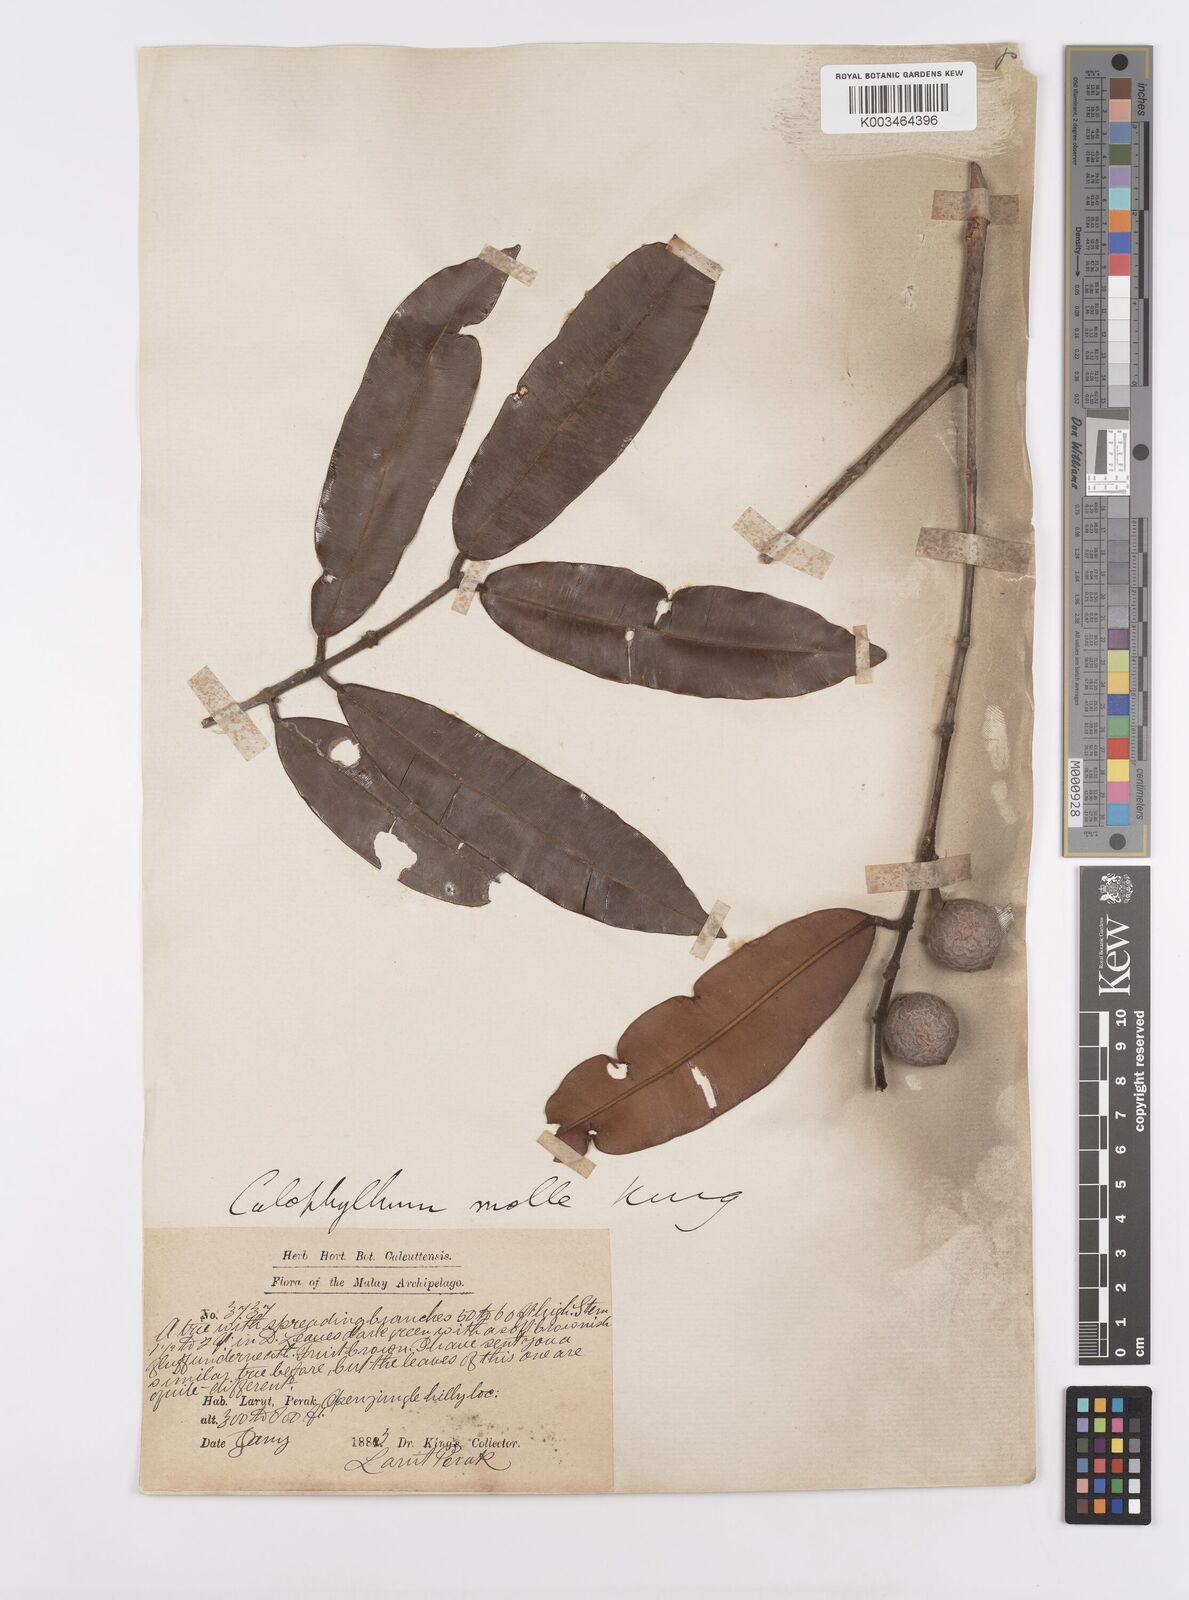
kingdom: Plantae
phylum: Tracheophyta
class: Magnoliopsida
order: Malpighiales
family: Calophyllaceae
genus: Calophyllum
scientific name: Calophyllum molle
